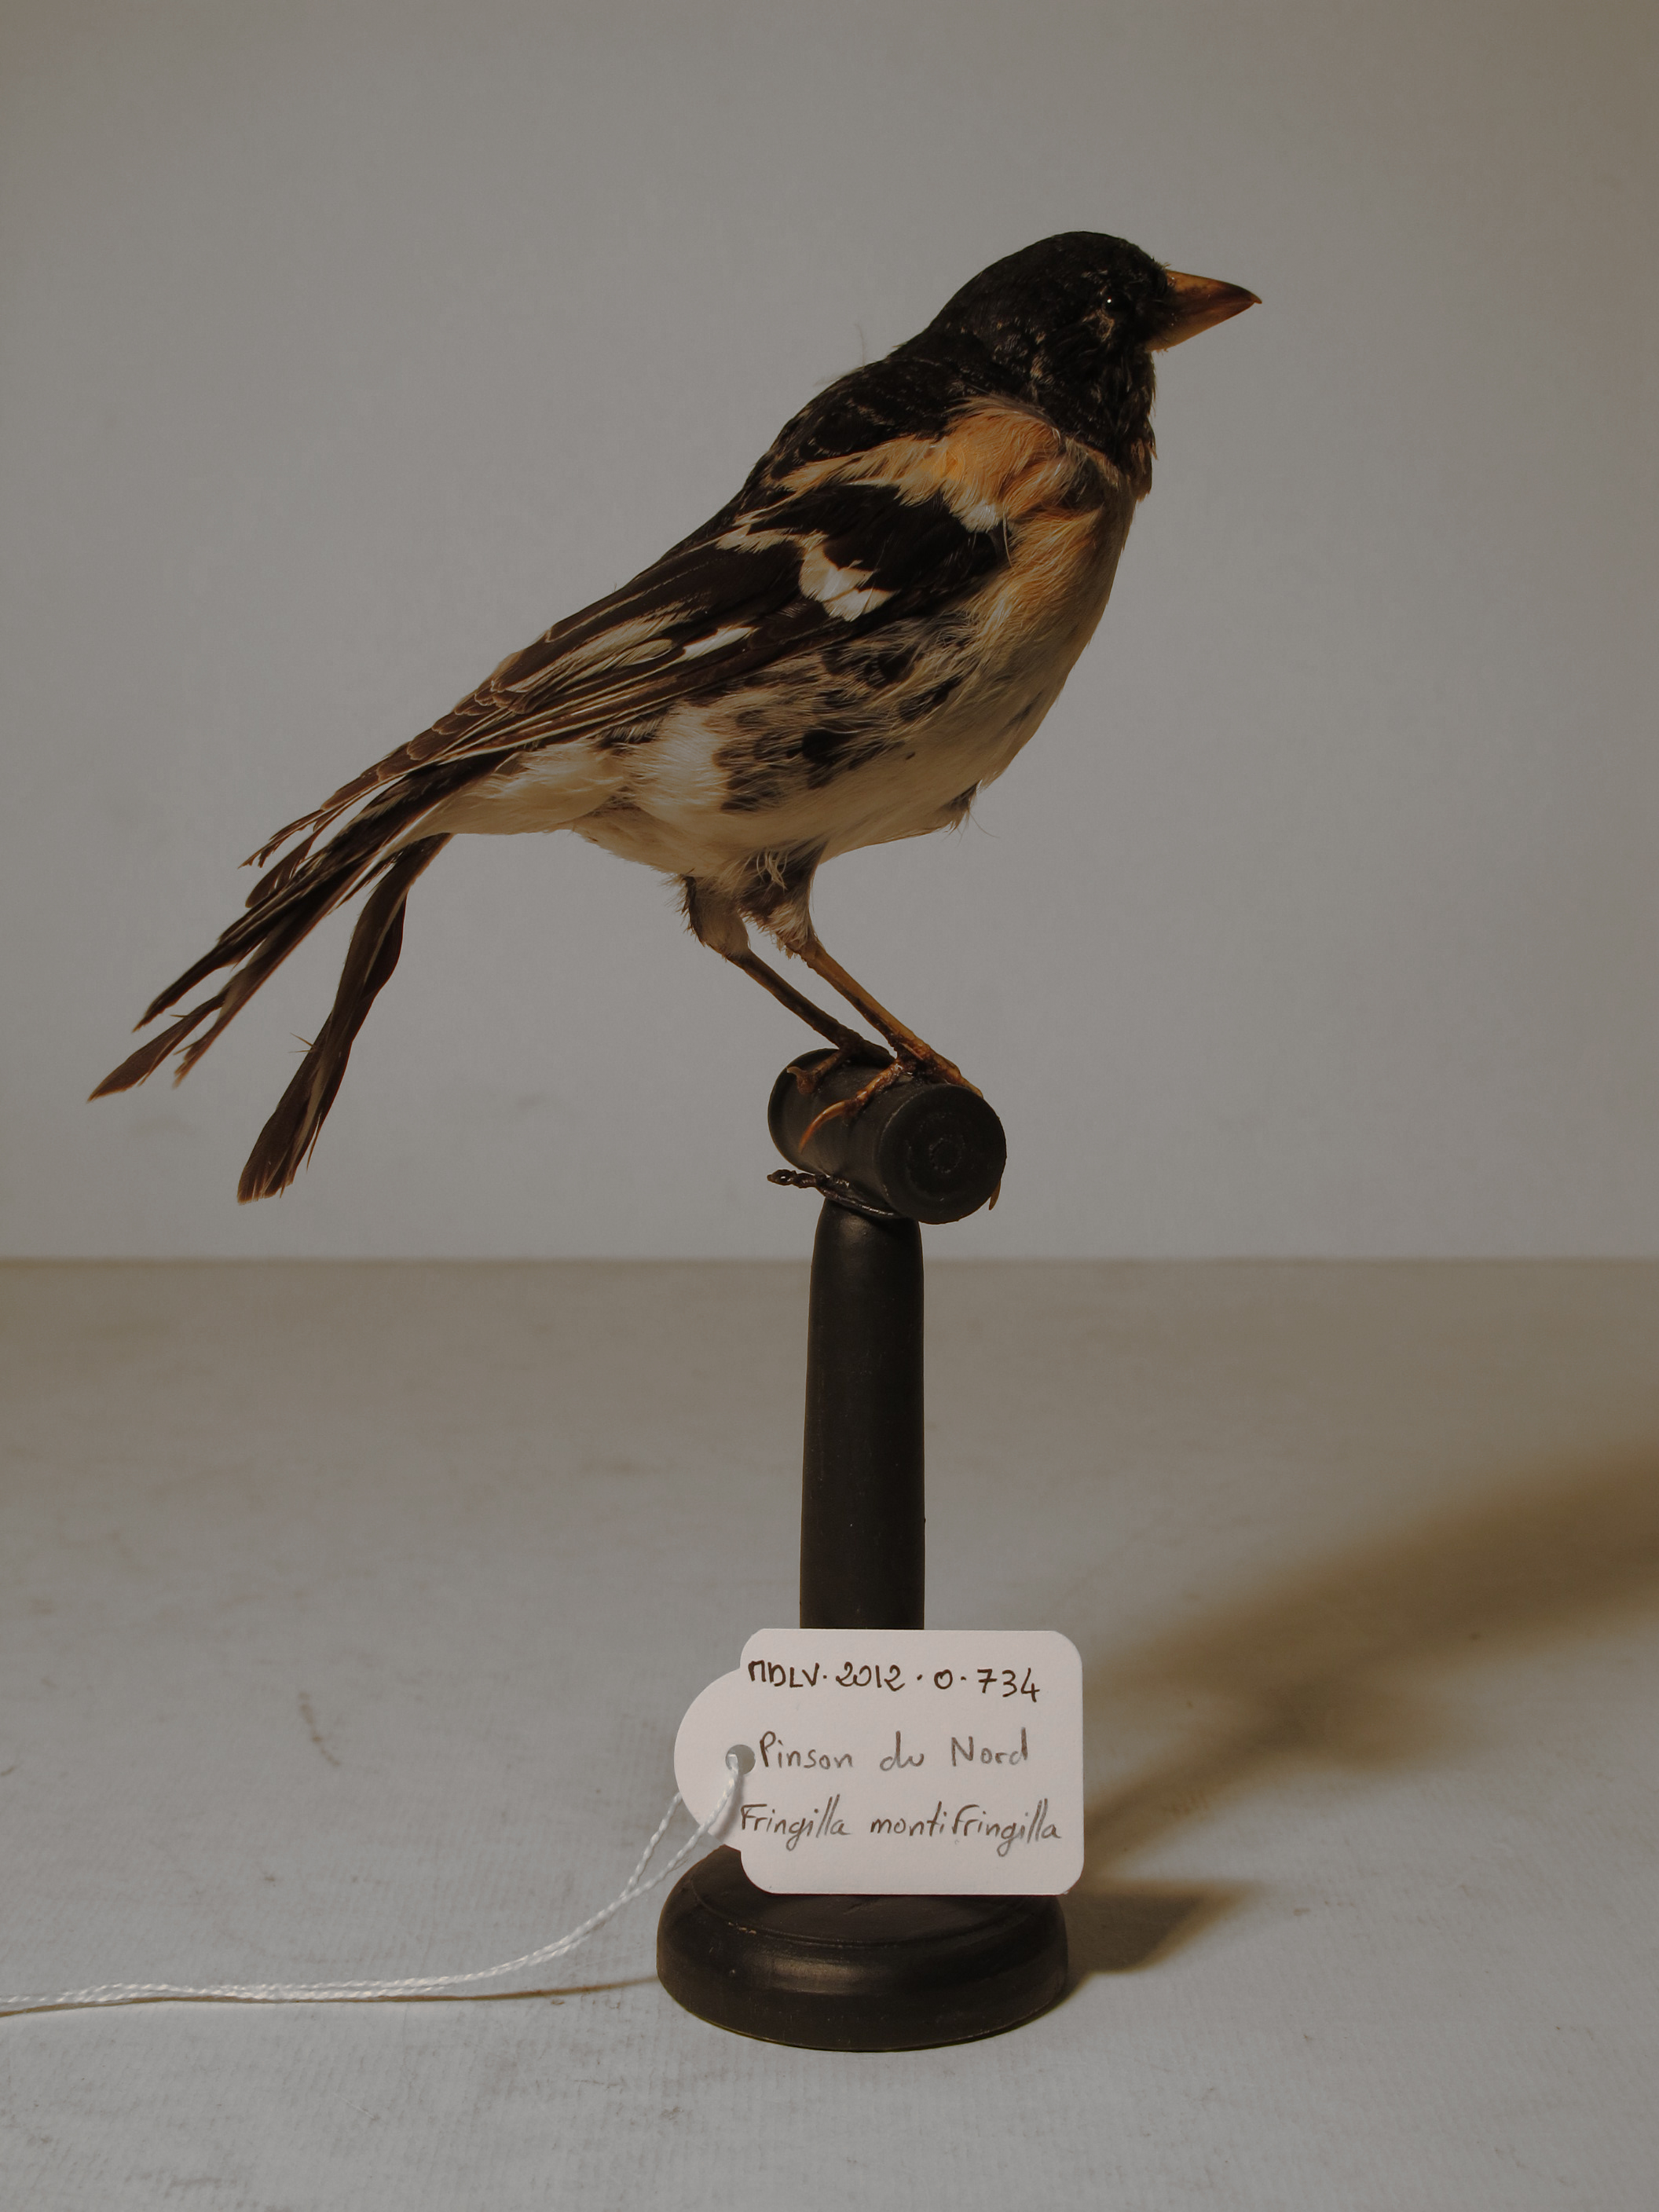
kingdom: Animalia
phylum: Chordata
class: Aves
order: Passeriformes
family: Fringillidae
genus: Fringilla
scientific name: Fringilla montifringilla
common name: Brambling
